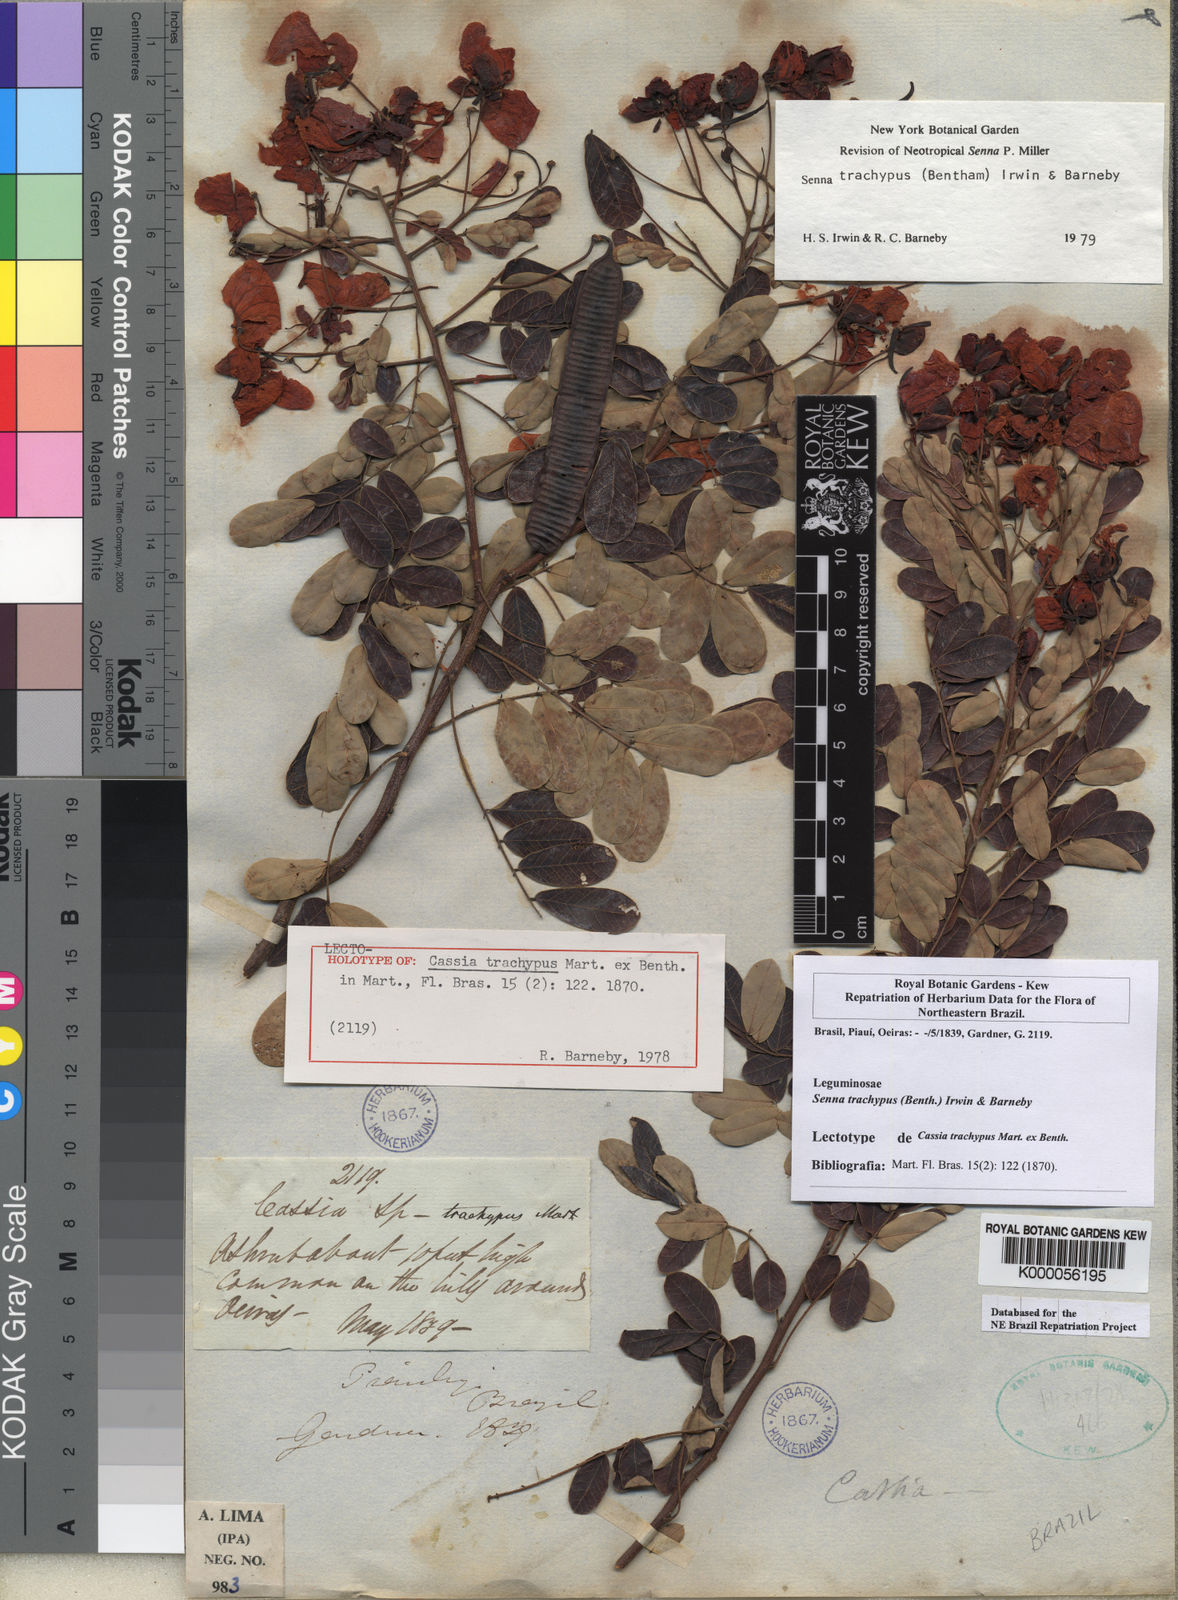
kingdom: Plantae
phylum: Tracheophyta
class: Magnoliopsida
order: Fabales
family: Fabaceae
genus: Senna
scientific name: Senna trachypus
